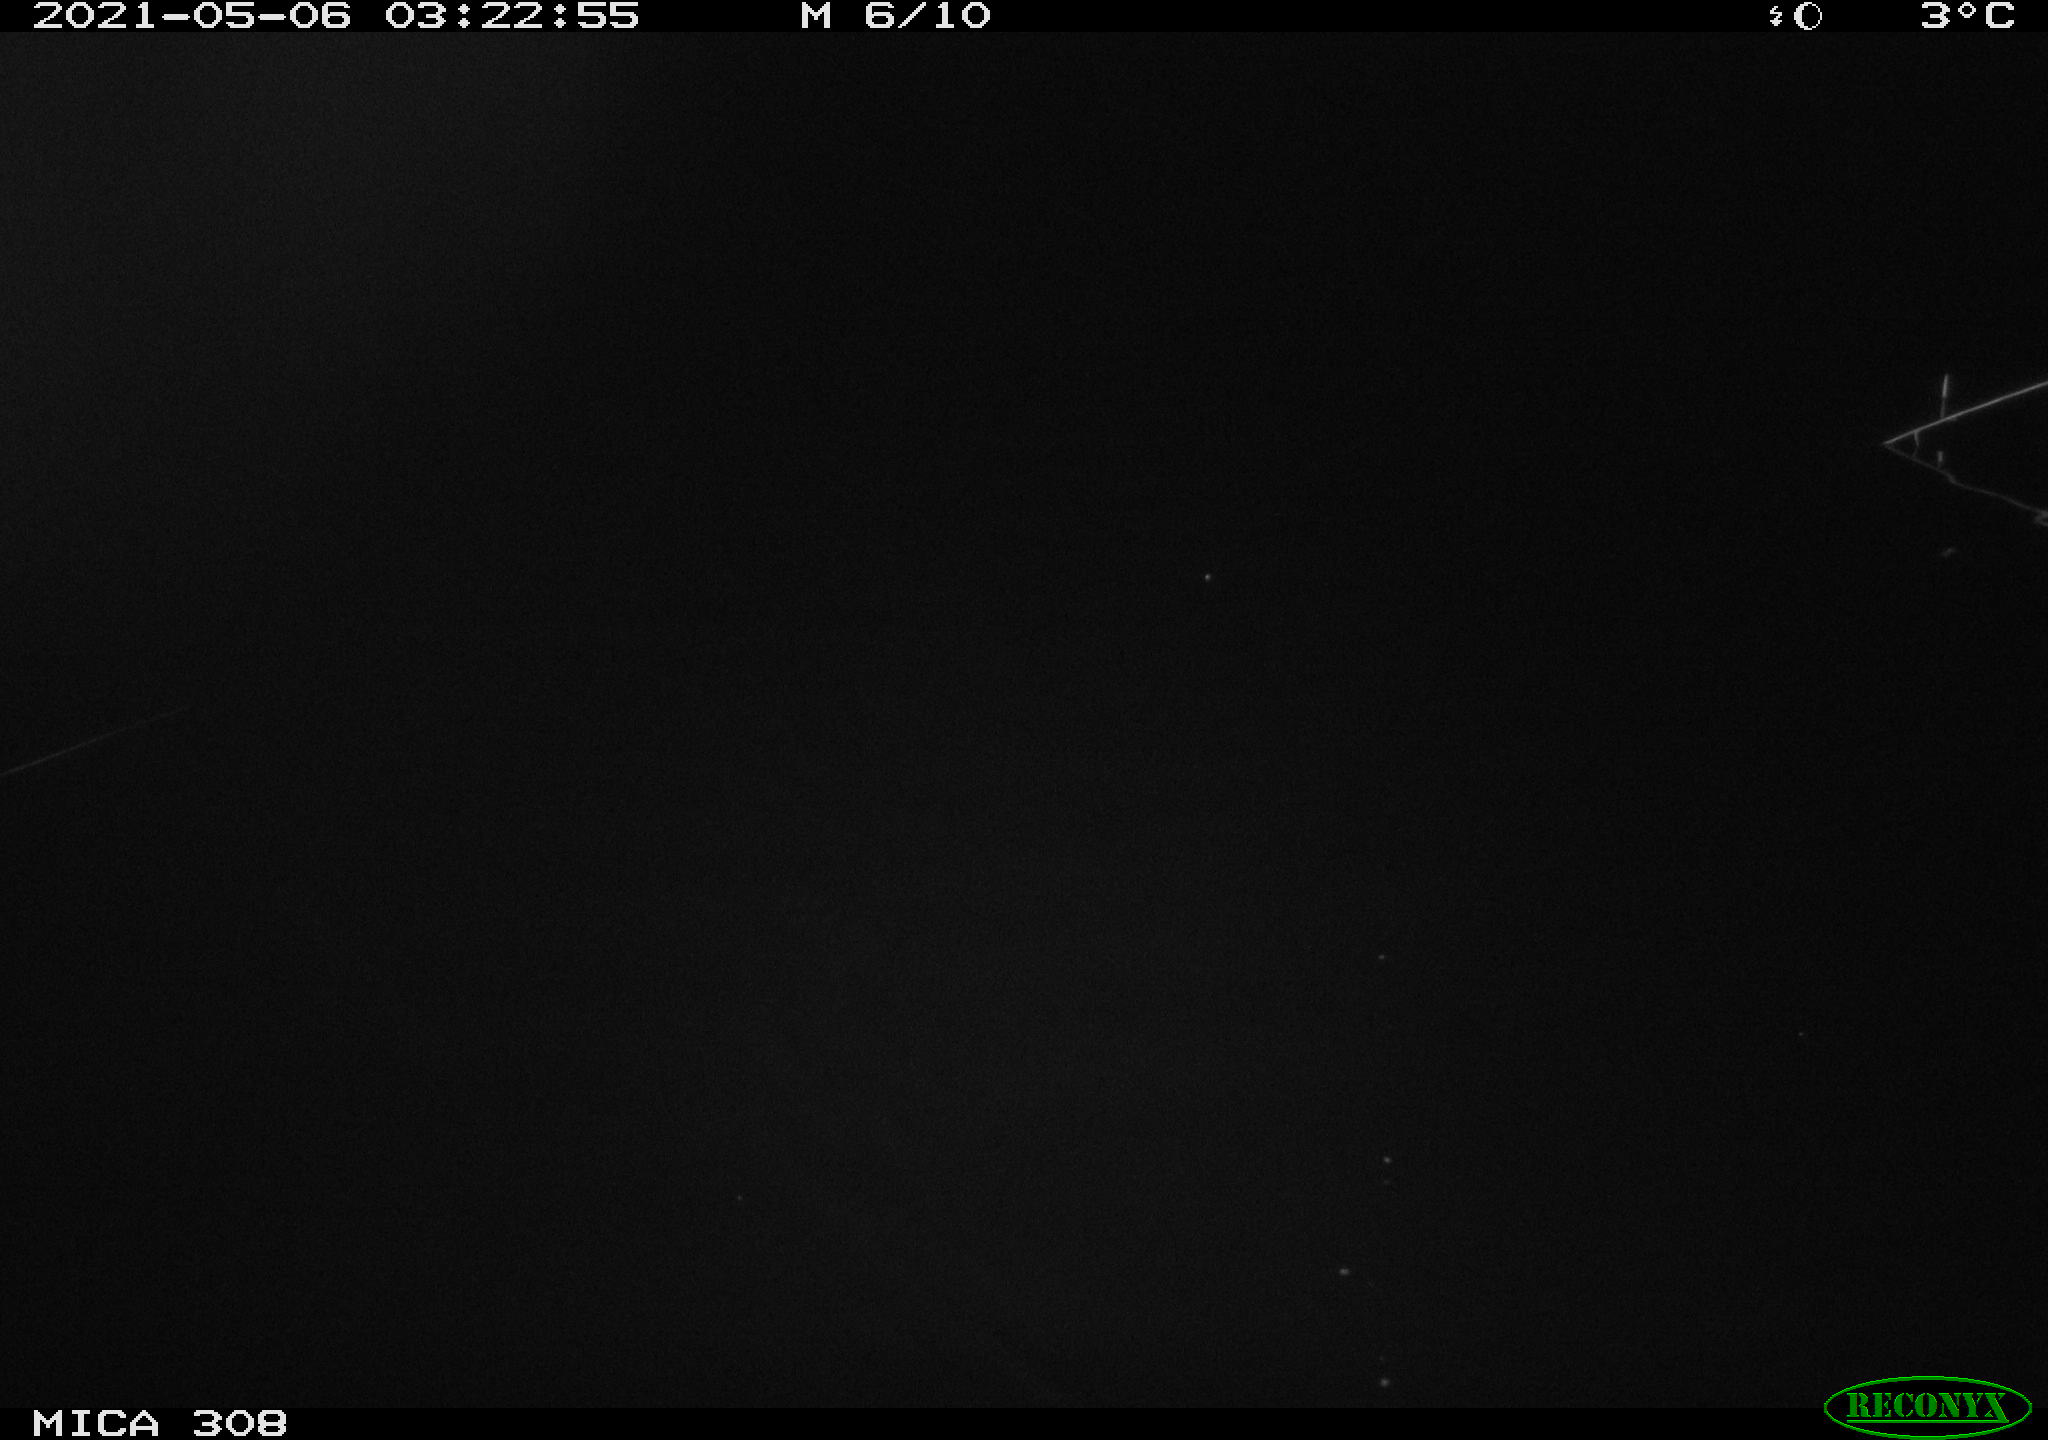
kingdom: Animalia
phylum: Chordata
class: Aves
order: Anseriformes
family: Anatidae
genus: Anas
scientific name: Anas platyrhynchos
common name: Mallard
